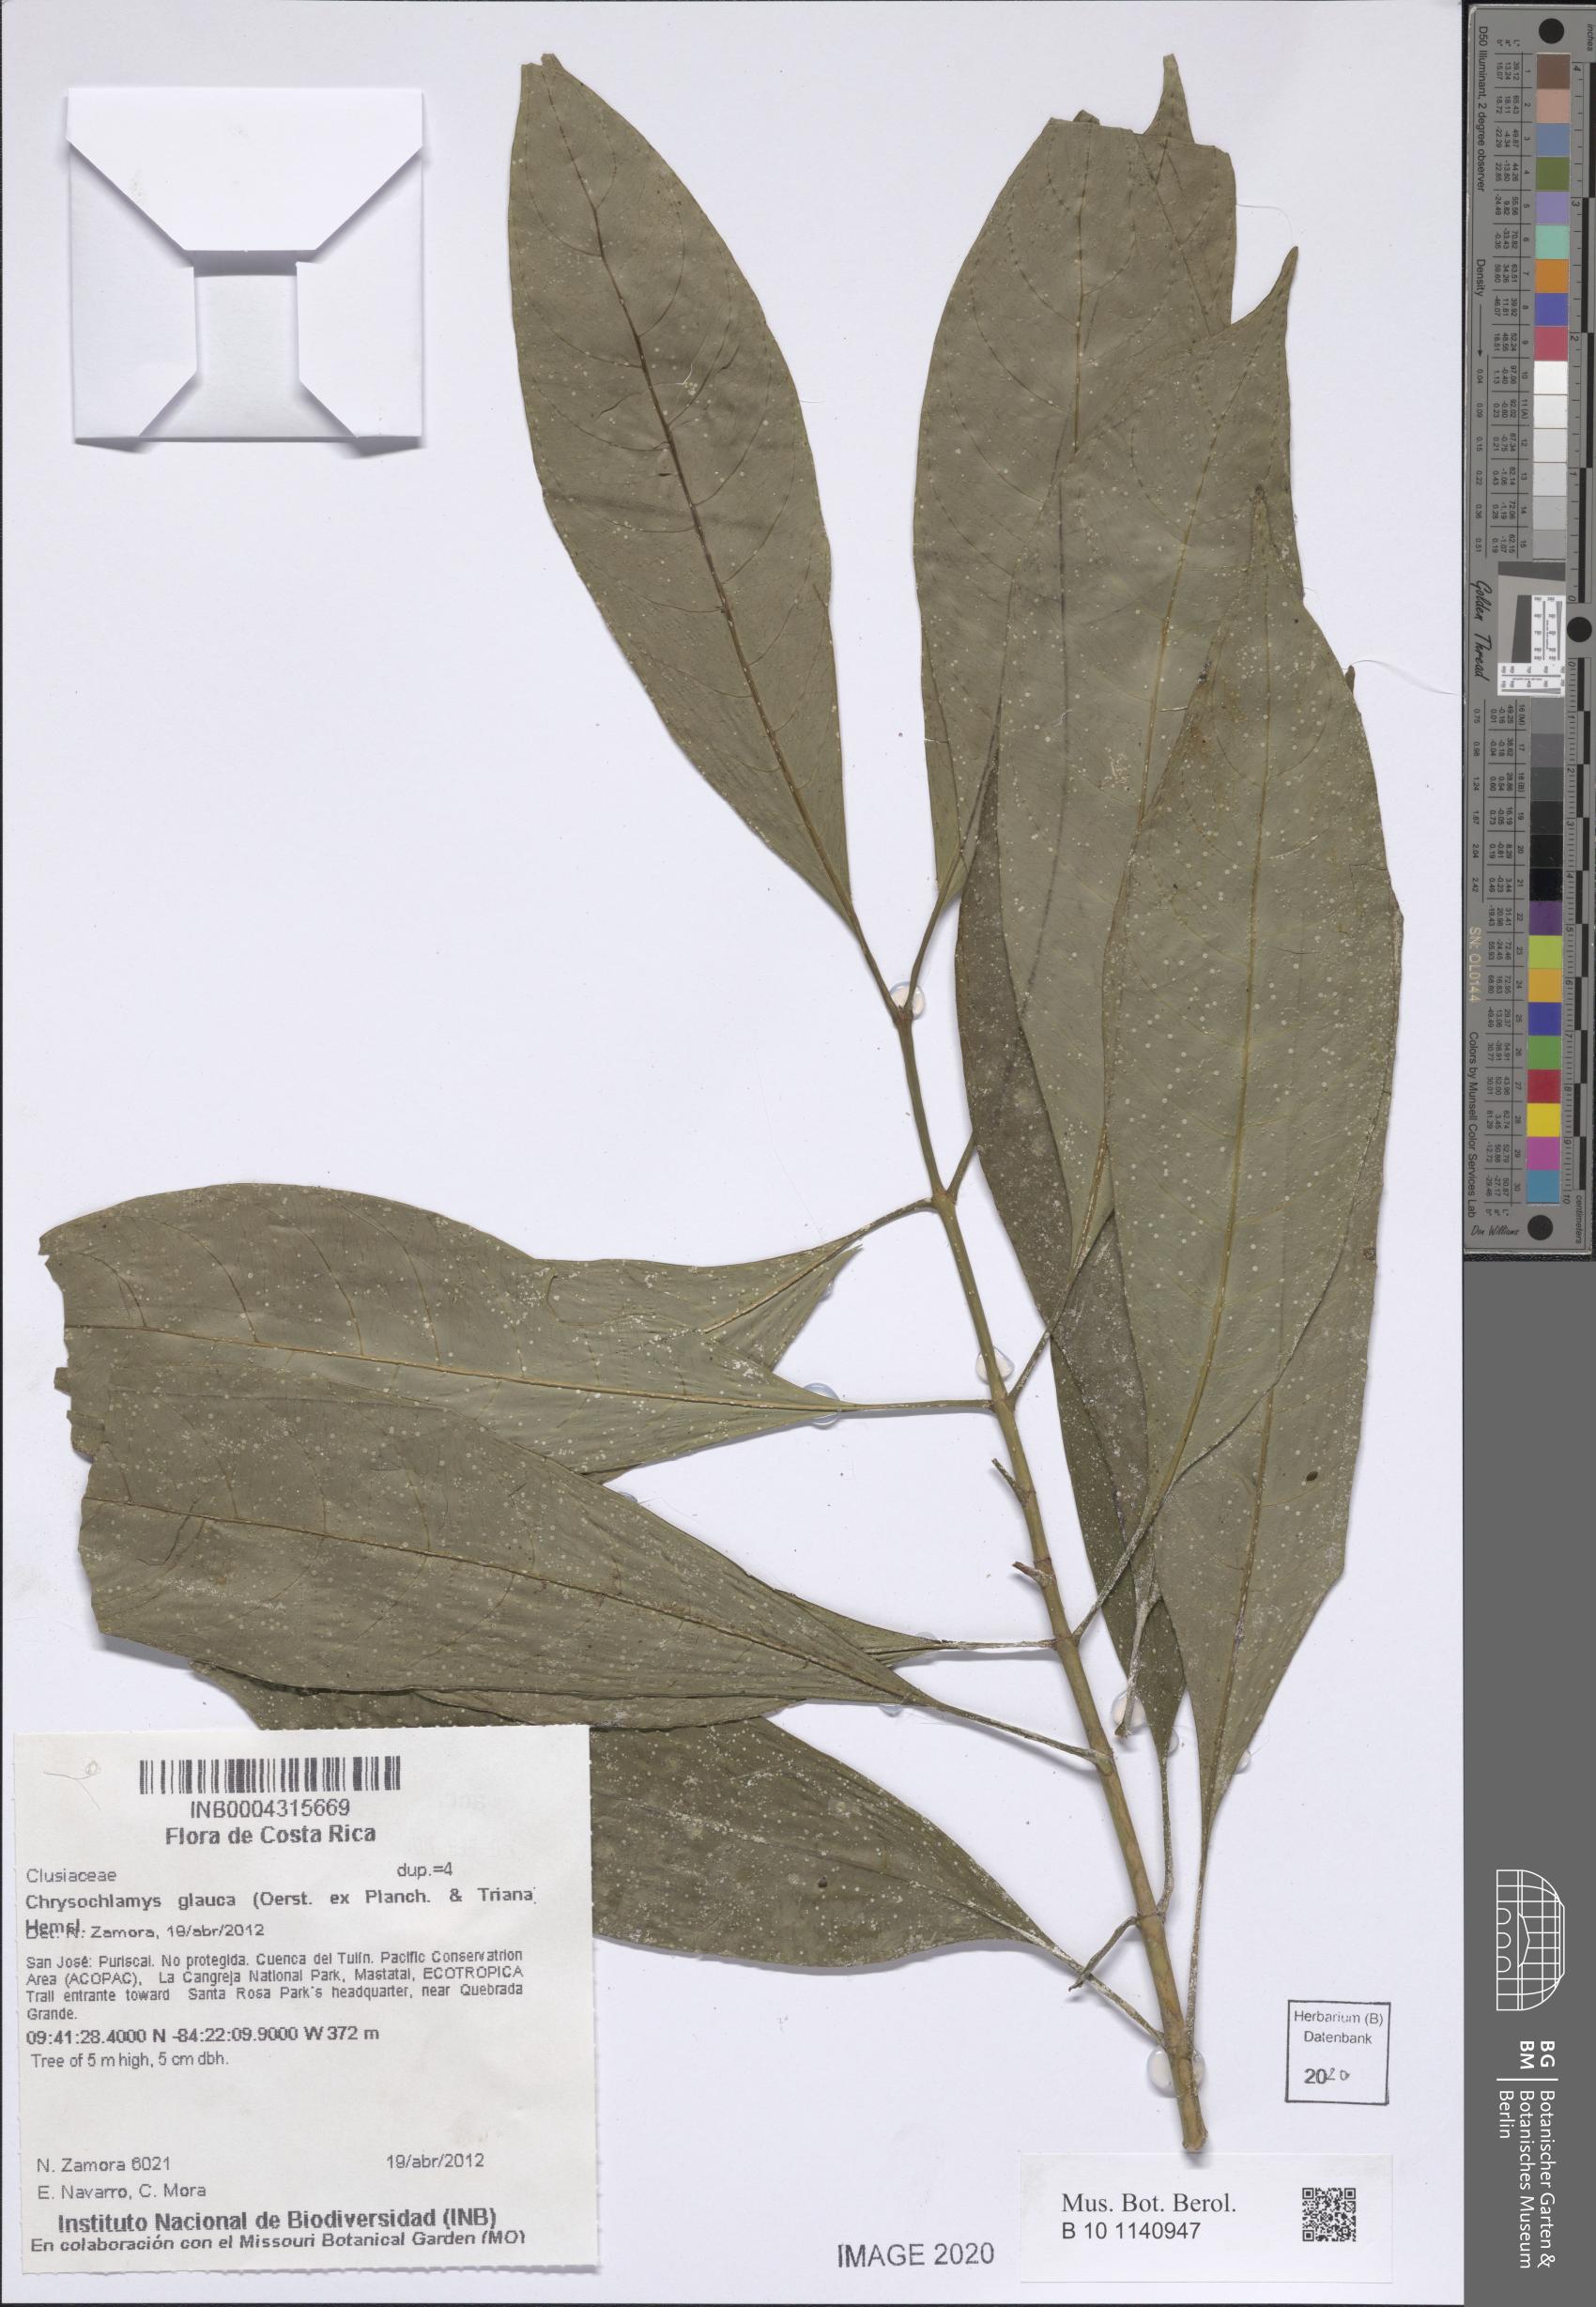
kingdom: Plantae
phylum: Tracheophyta
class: Magnoliopsida
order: Malpighiales
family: Clusiaceae
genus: Chrysochlamys
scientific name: Chrysochlamys glauca
